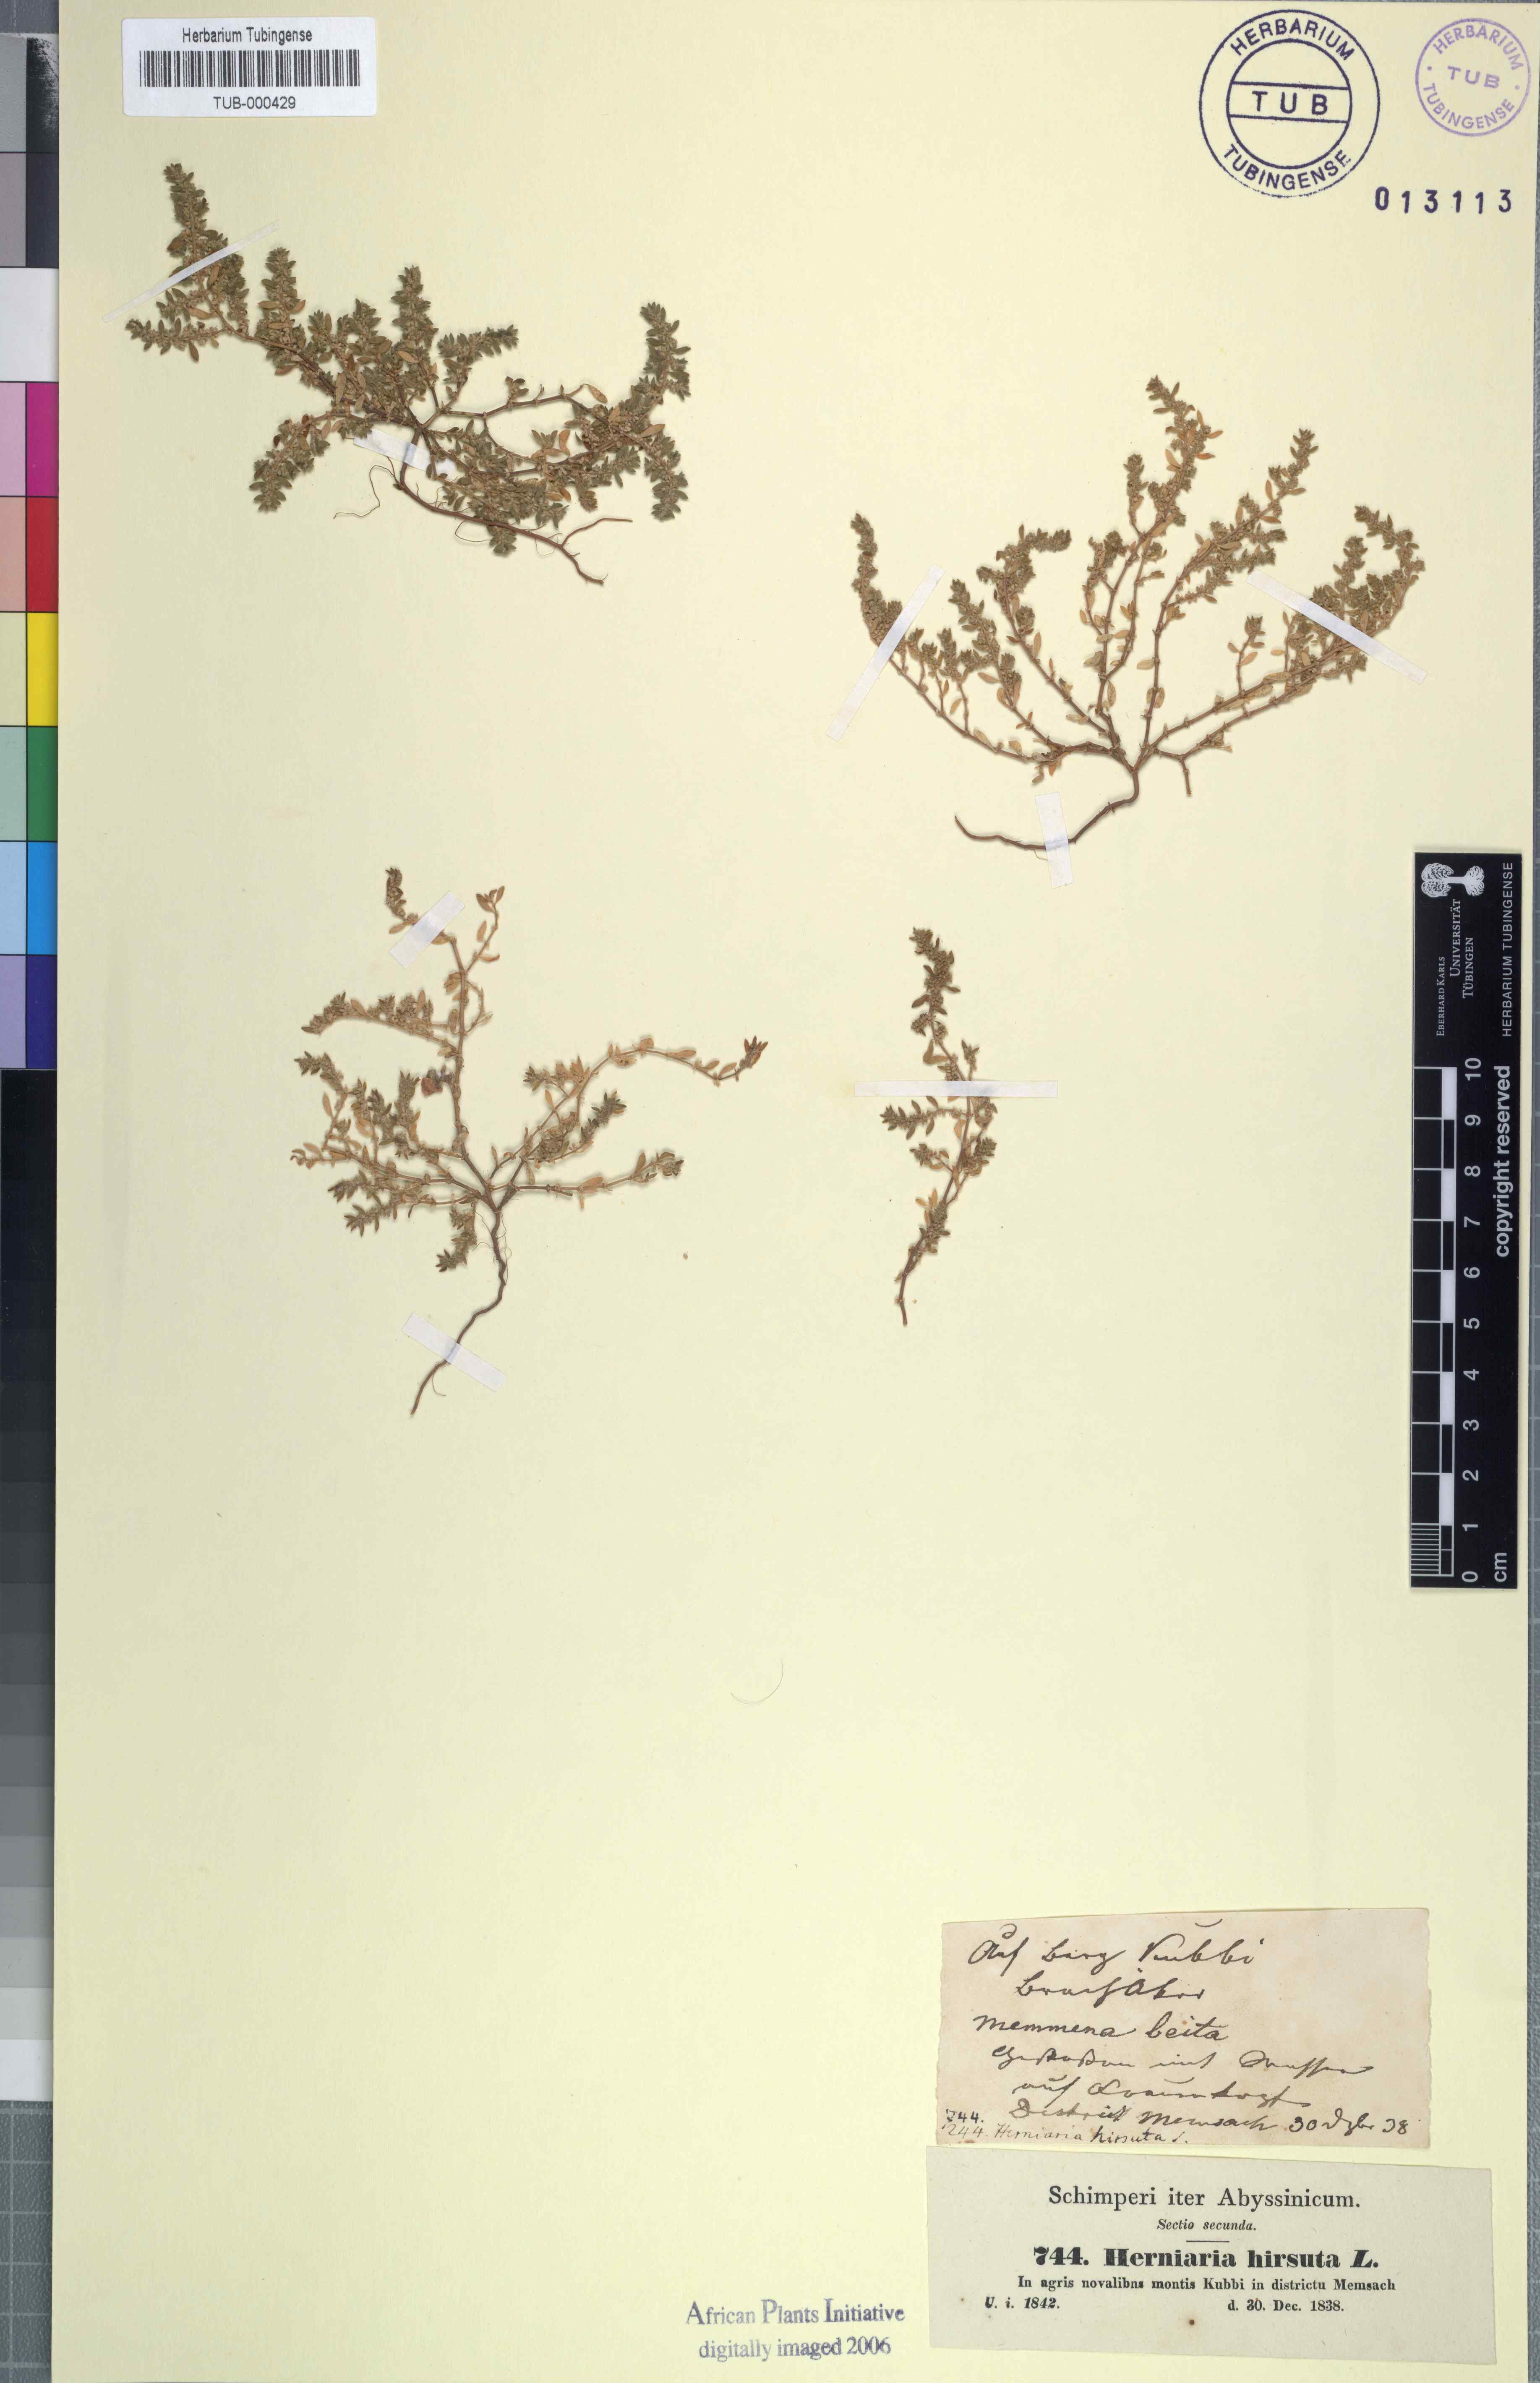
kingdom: Plantae
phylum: Tracheophyta
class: Magnoliopsida
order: Caryophyllales
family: Caryophyllaceae
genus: Herniaria
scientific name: Herniaria hirsuta
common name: Hairy rupturewort
